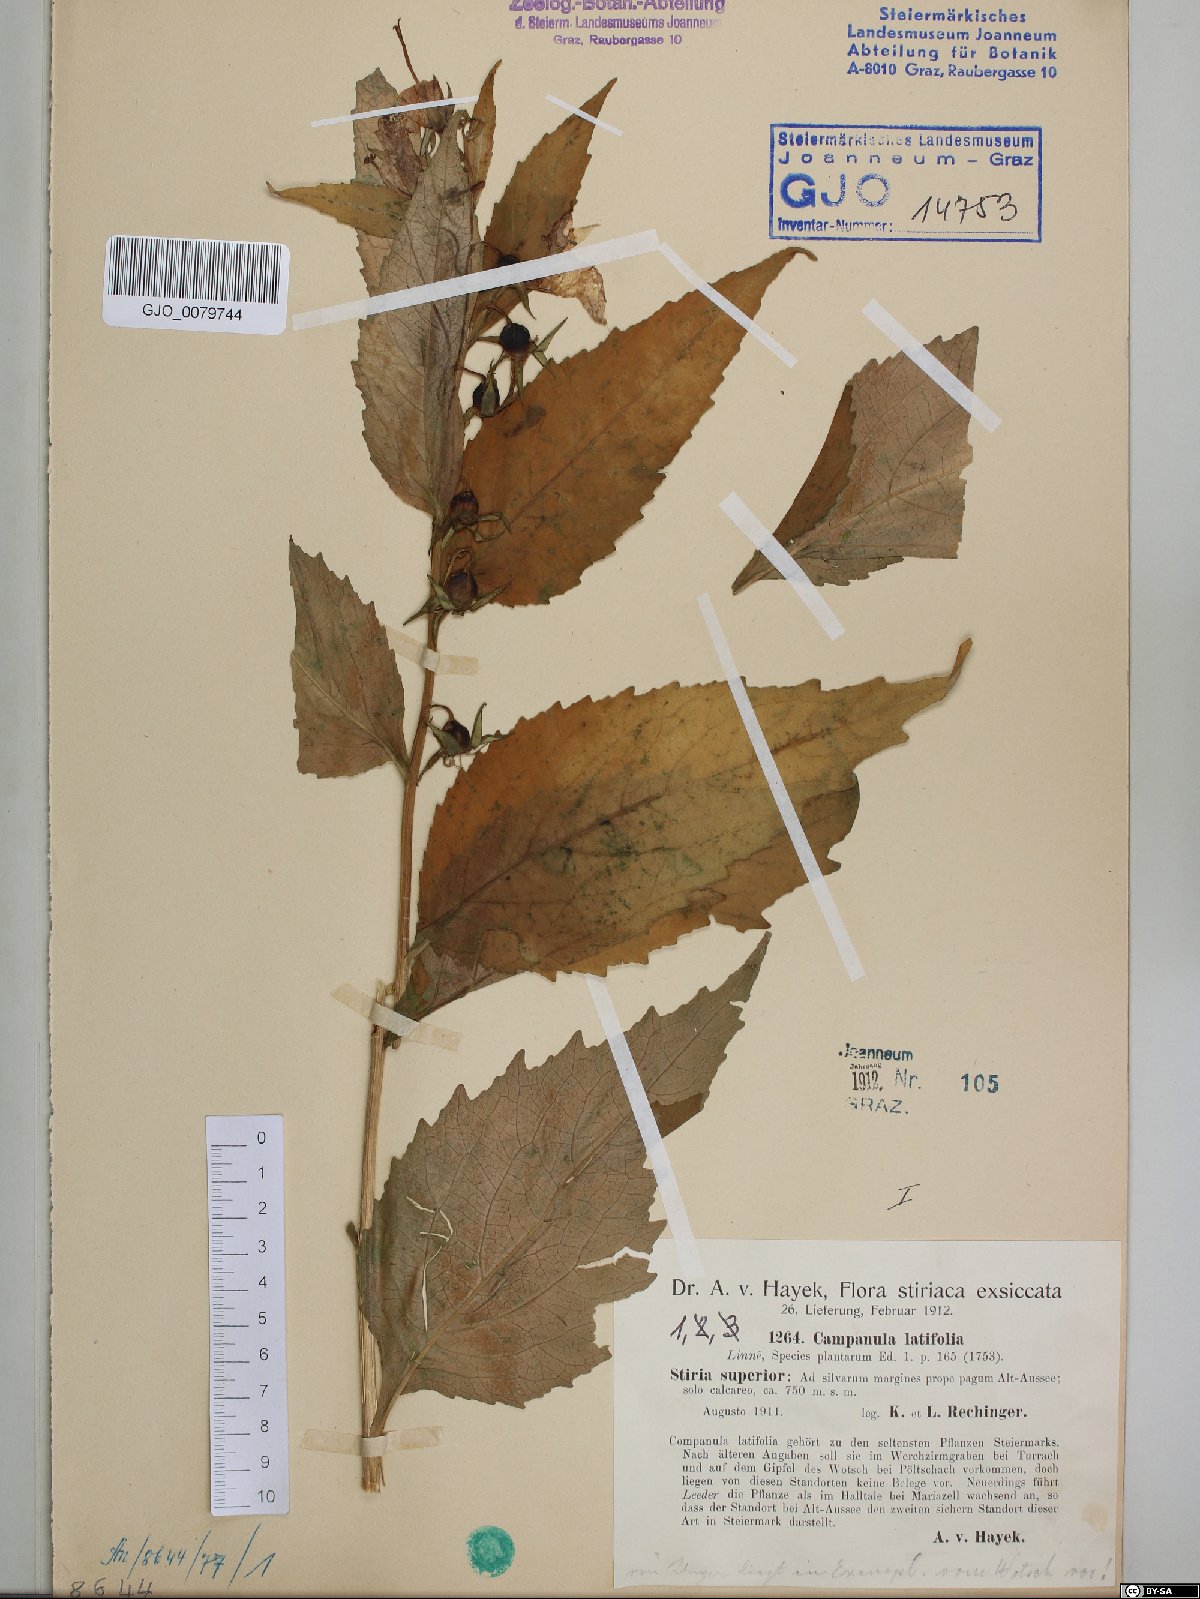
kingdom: Plantae
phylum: Tracheophyta
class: Magnoliopsida
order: Asterales
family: Campanulaceae
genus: Campanula
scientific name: Campanula latifolia
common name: Giant bellflower
